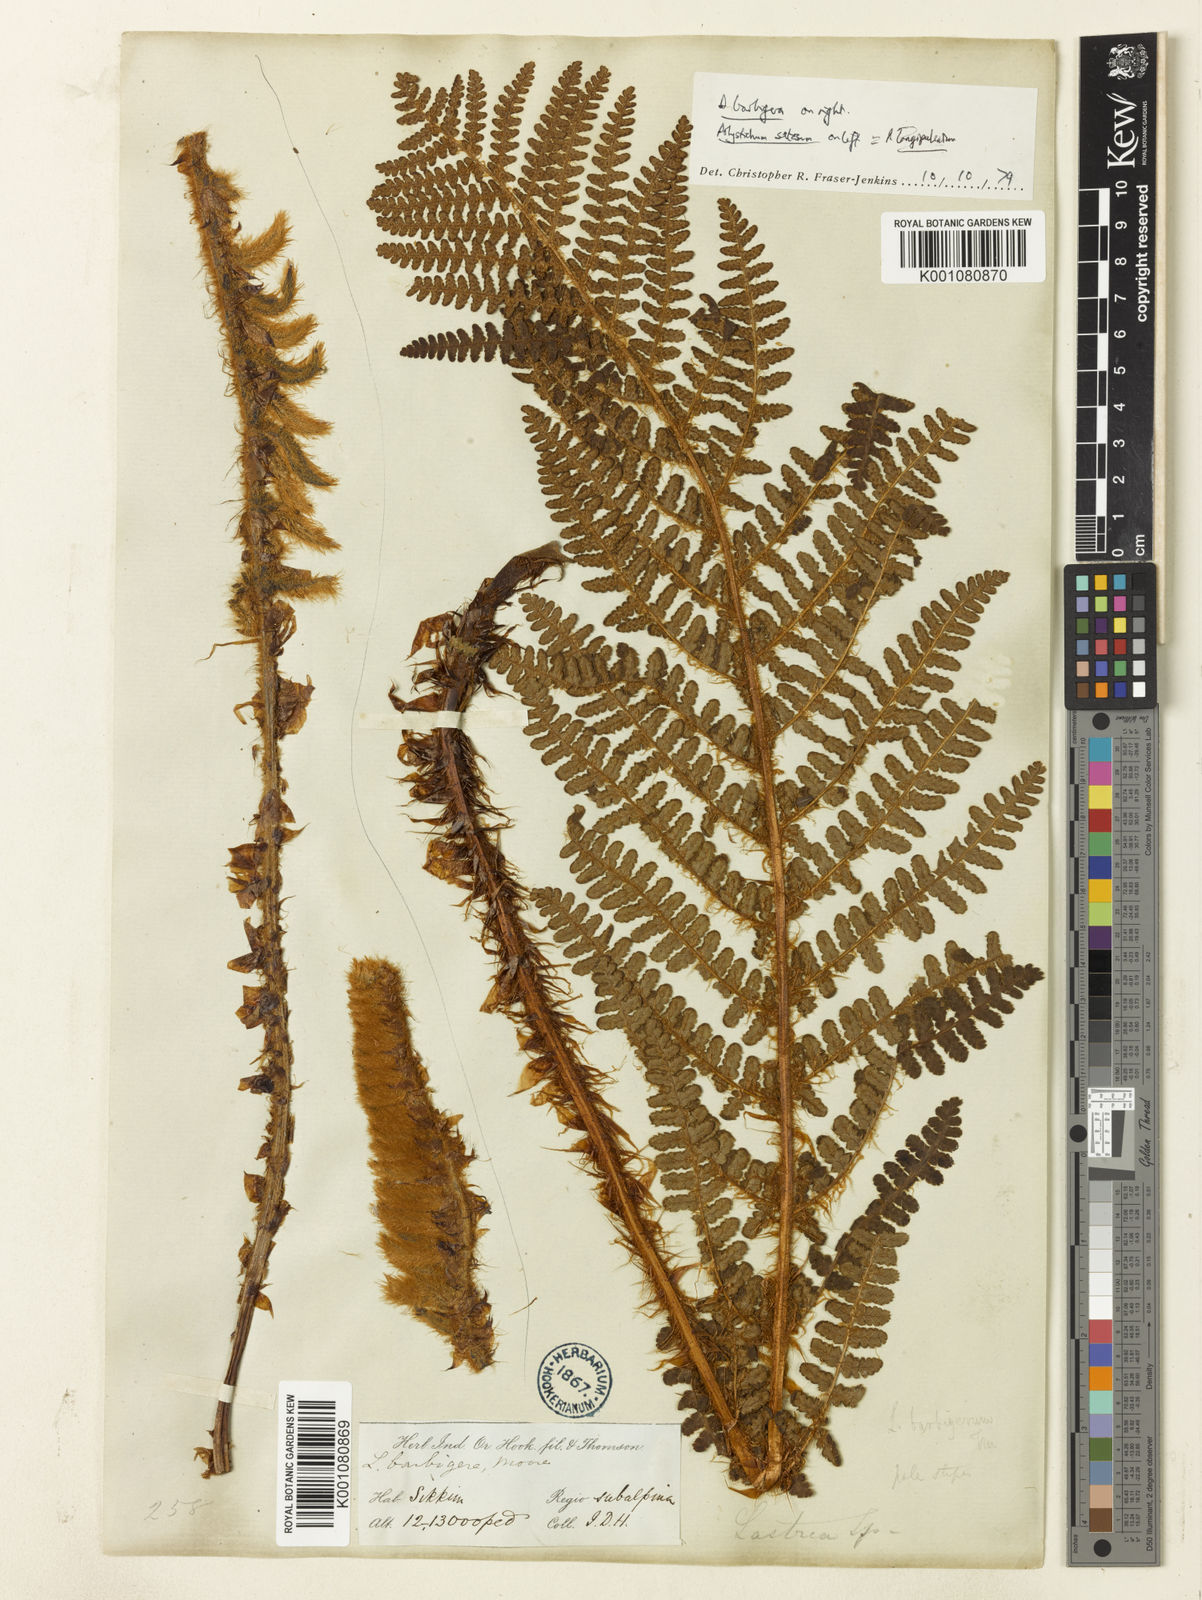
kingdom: Plantae
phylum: Tracheophyta
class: Polypodiopsida
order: Polypodiales
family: Dryopteridaceae
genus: Dryopteris
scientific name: Dryopteris barbigera
